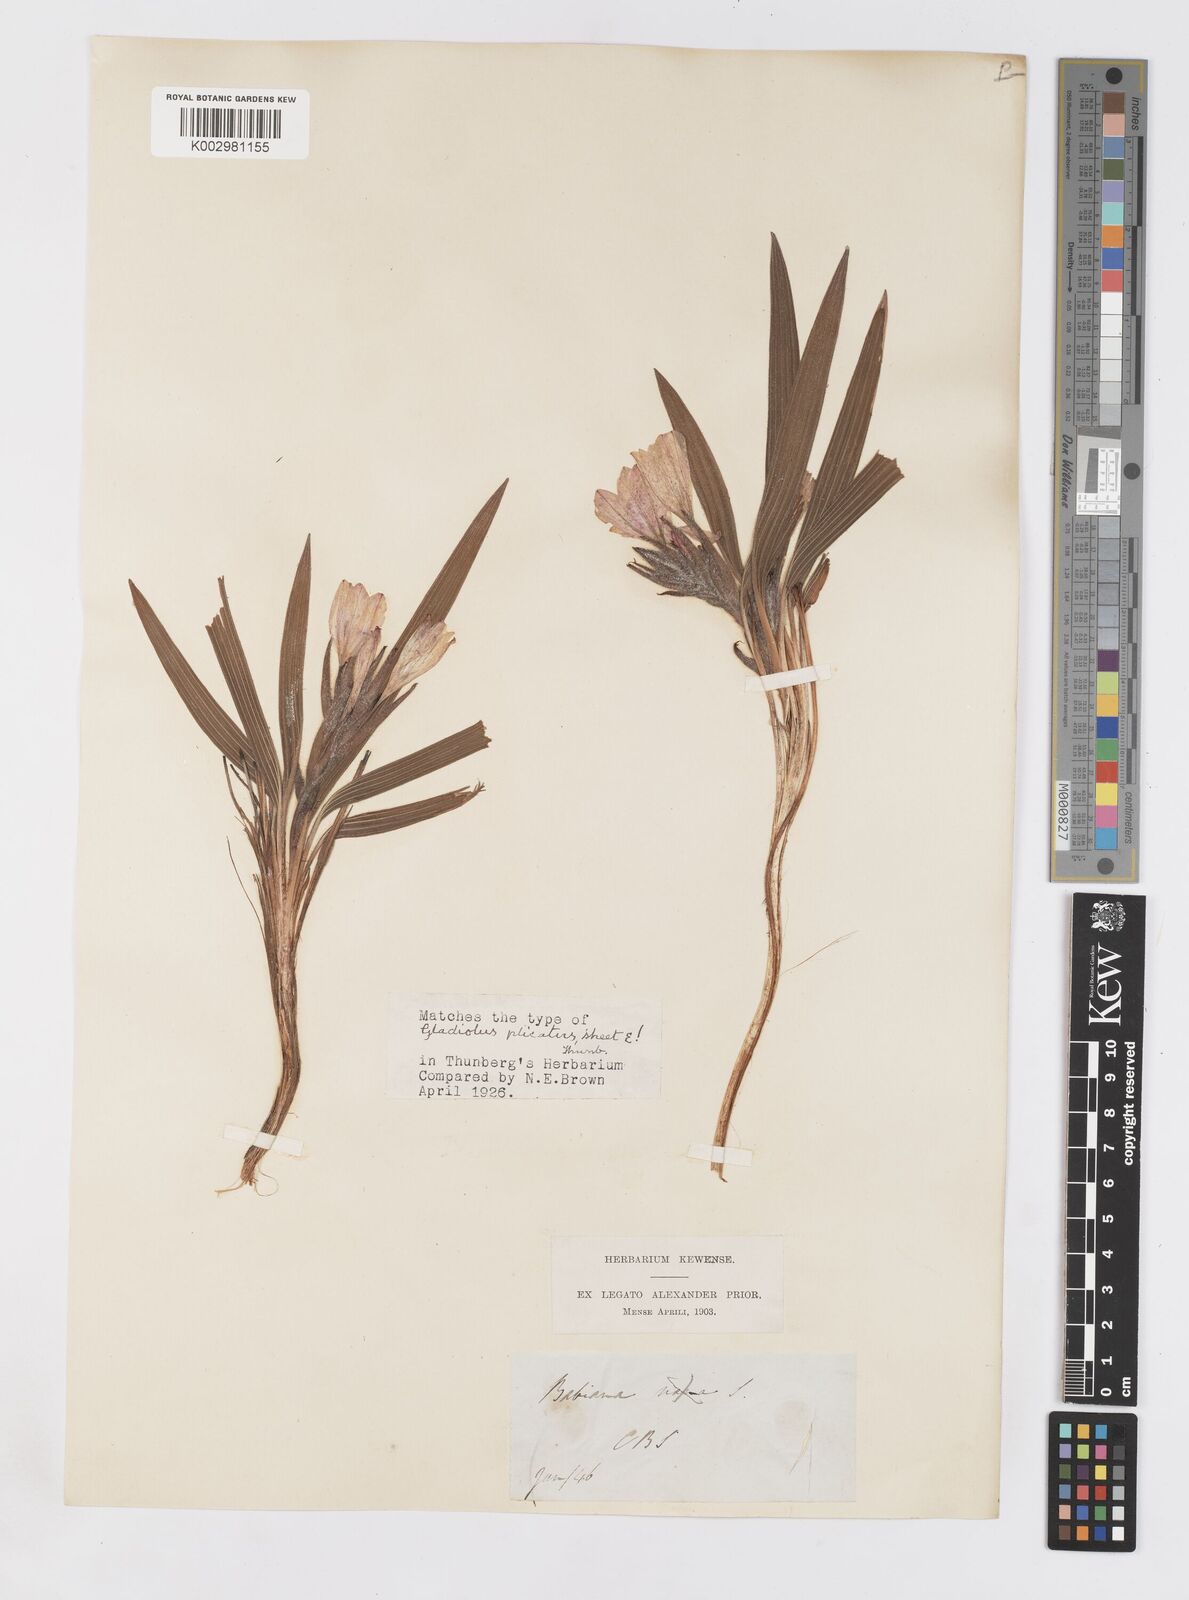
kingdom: Plantae
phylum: Tracheophyta
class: Liliopsida
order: Asparagales
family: Iridaceae
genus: Babiana
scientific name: Babiana fragrans
